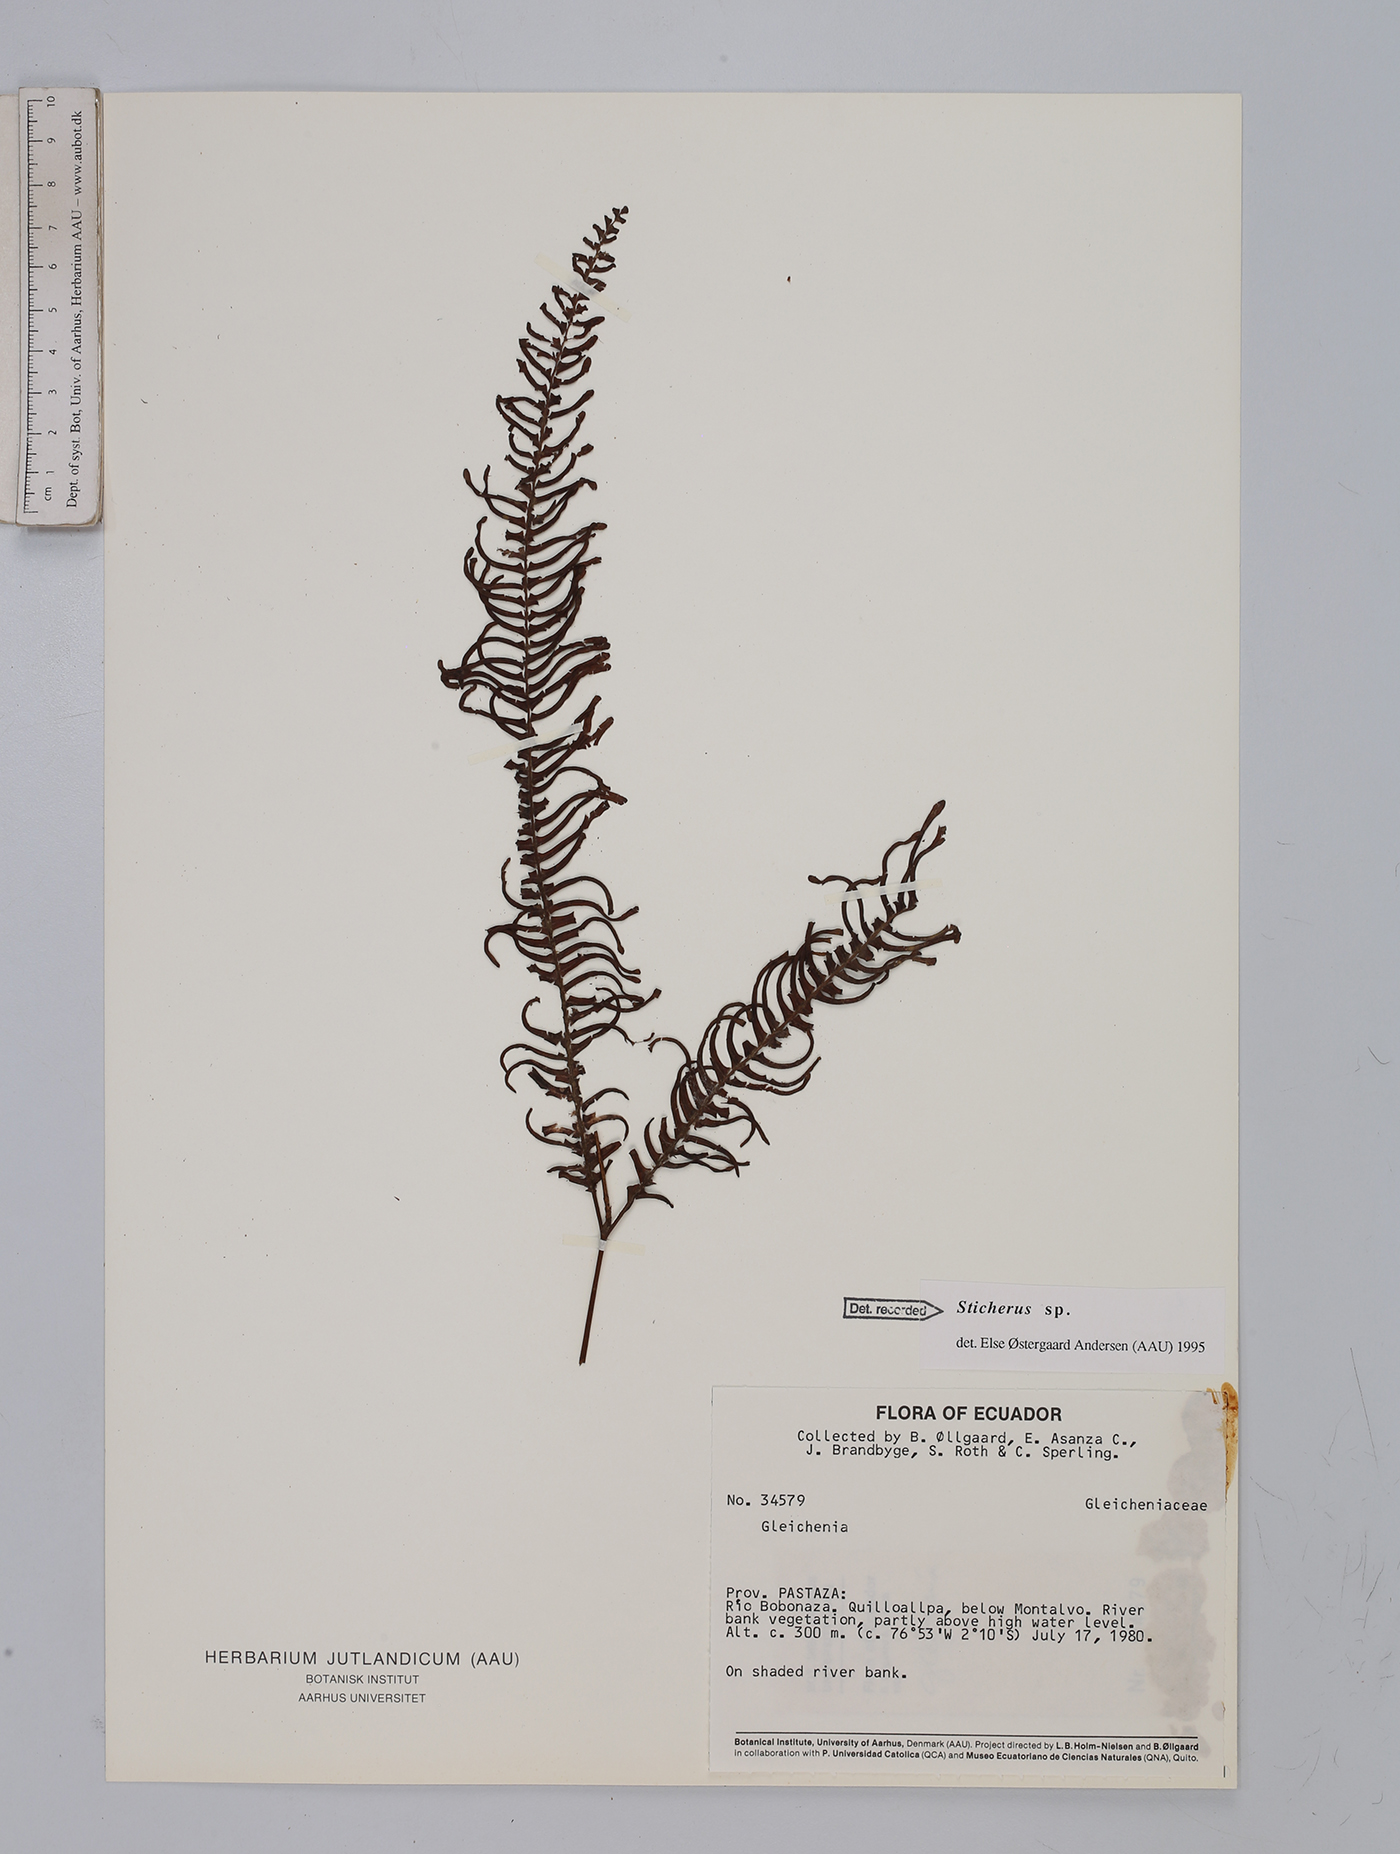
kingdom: Plantae
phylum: Tracheophyta
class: Polypodiopsida
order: Gleicheniales
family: Gleicheniaceae
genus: Sticherus
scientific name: Sticherus
